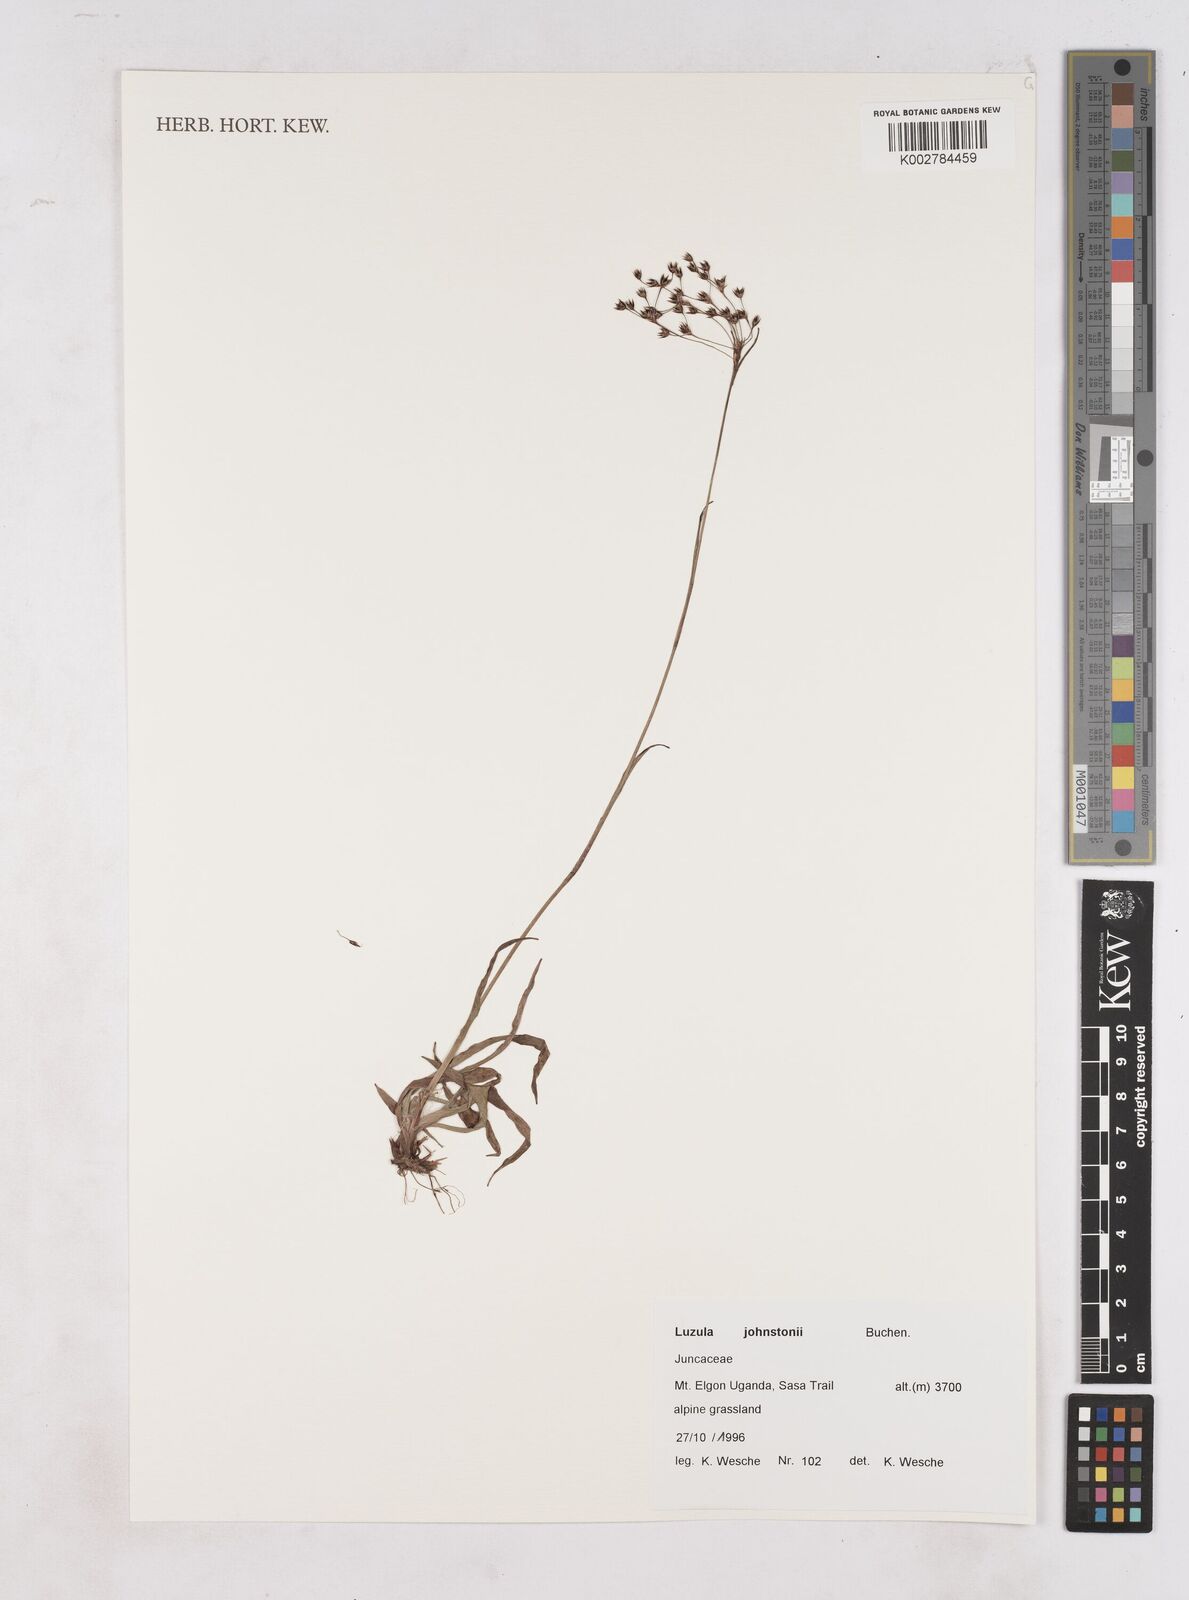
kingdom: Plantae
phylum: Tracheophyta
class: Liliopsida
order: Poales
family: Juncaceae
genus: Luzula
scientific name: Luzula johnstonii
